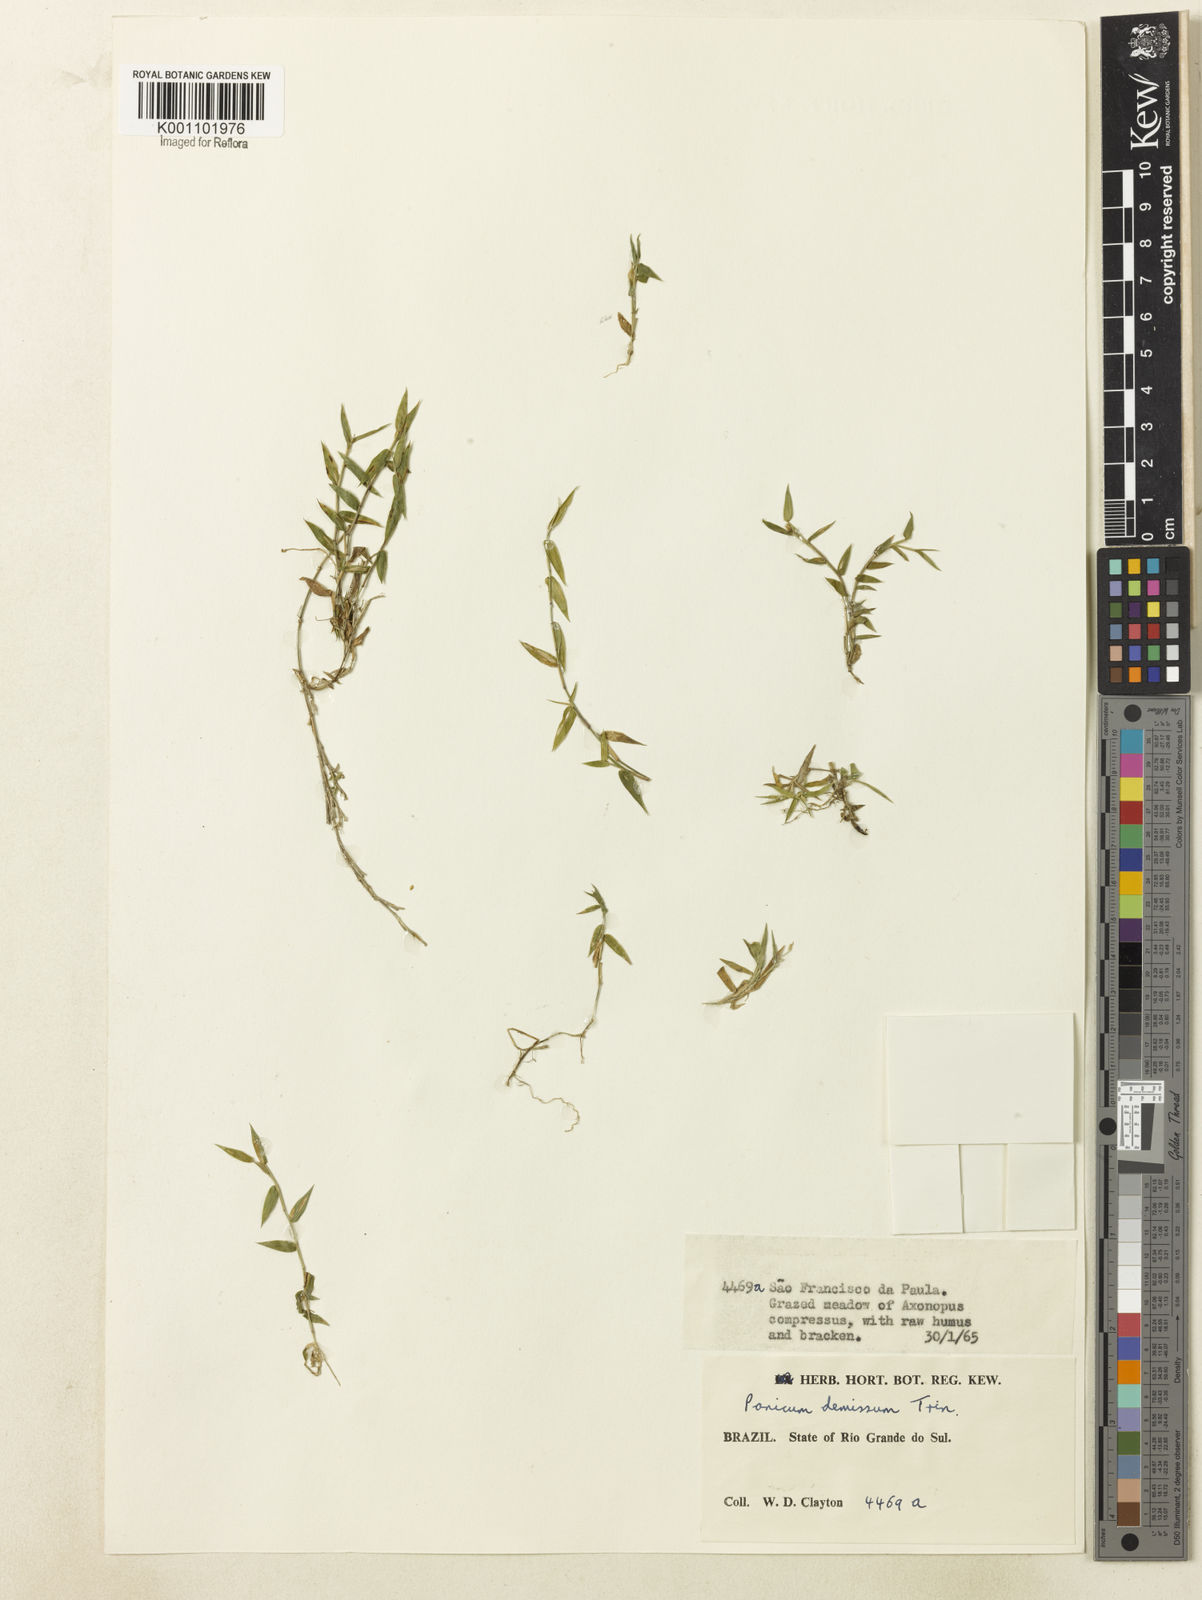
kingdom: Plantae
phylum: Tracheophyta
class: Liliopsida
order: Poales
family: Poaceae
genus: Dichanthelium
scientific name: Dichanthelium sabulorum
